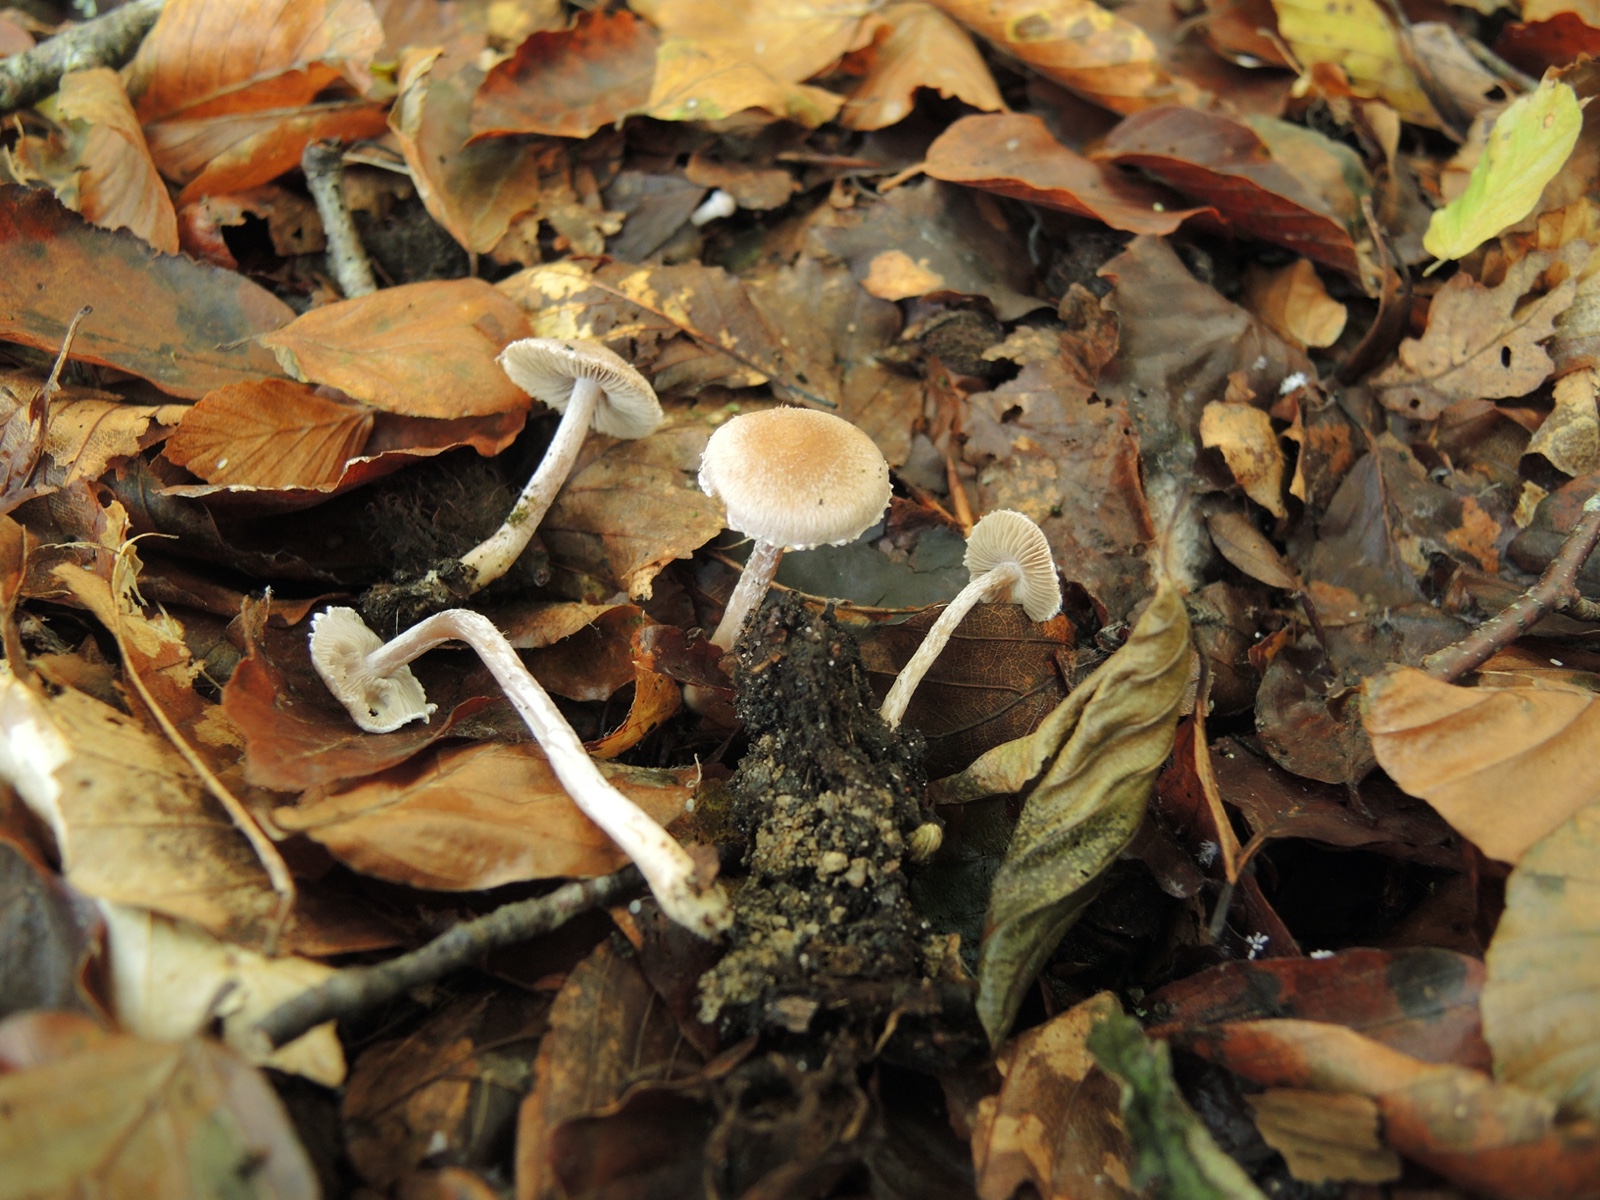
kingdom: Fungi
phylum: Basidiomycota
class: Agaricomycetes
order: Agaricales
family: Inocybaceae
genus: Inocybe
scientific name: Inocybe
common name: trævlhat
